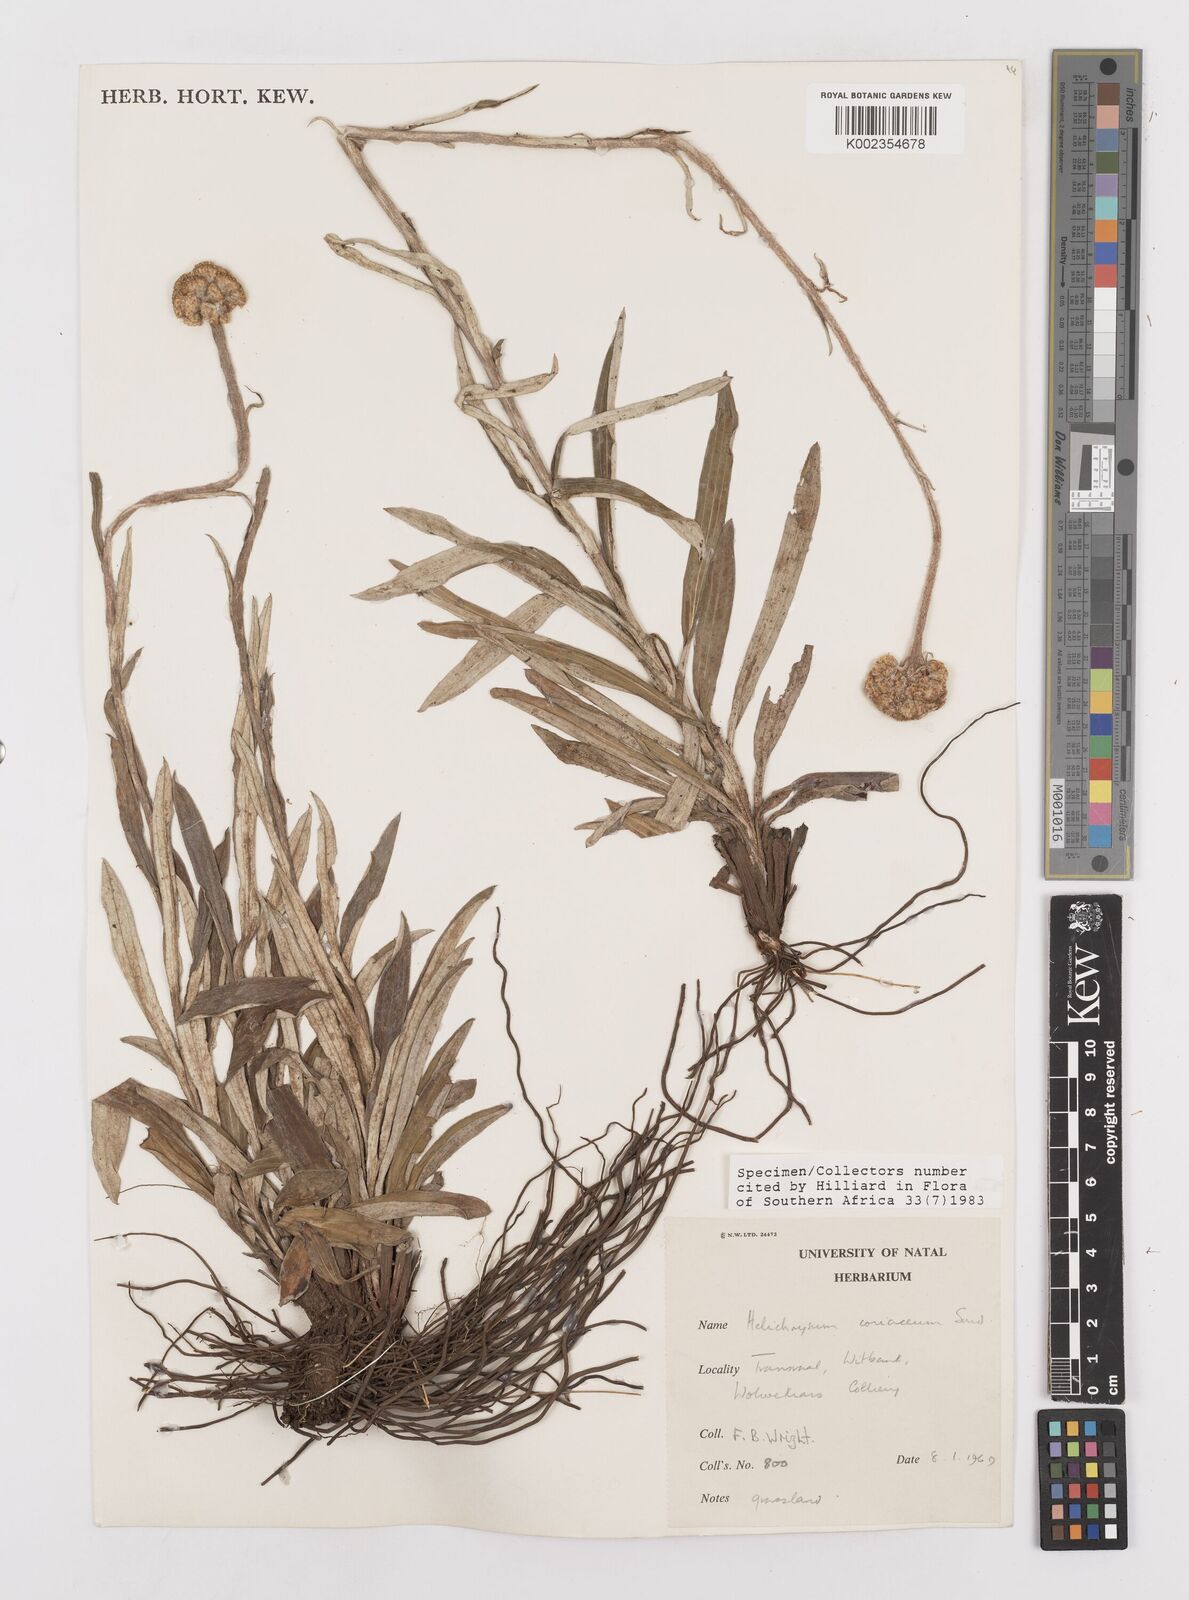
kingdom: Plantae
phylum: Tracheophyta
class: Magnoliopsida
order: Asterales
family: Asteraceae
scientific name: Asteraceae
